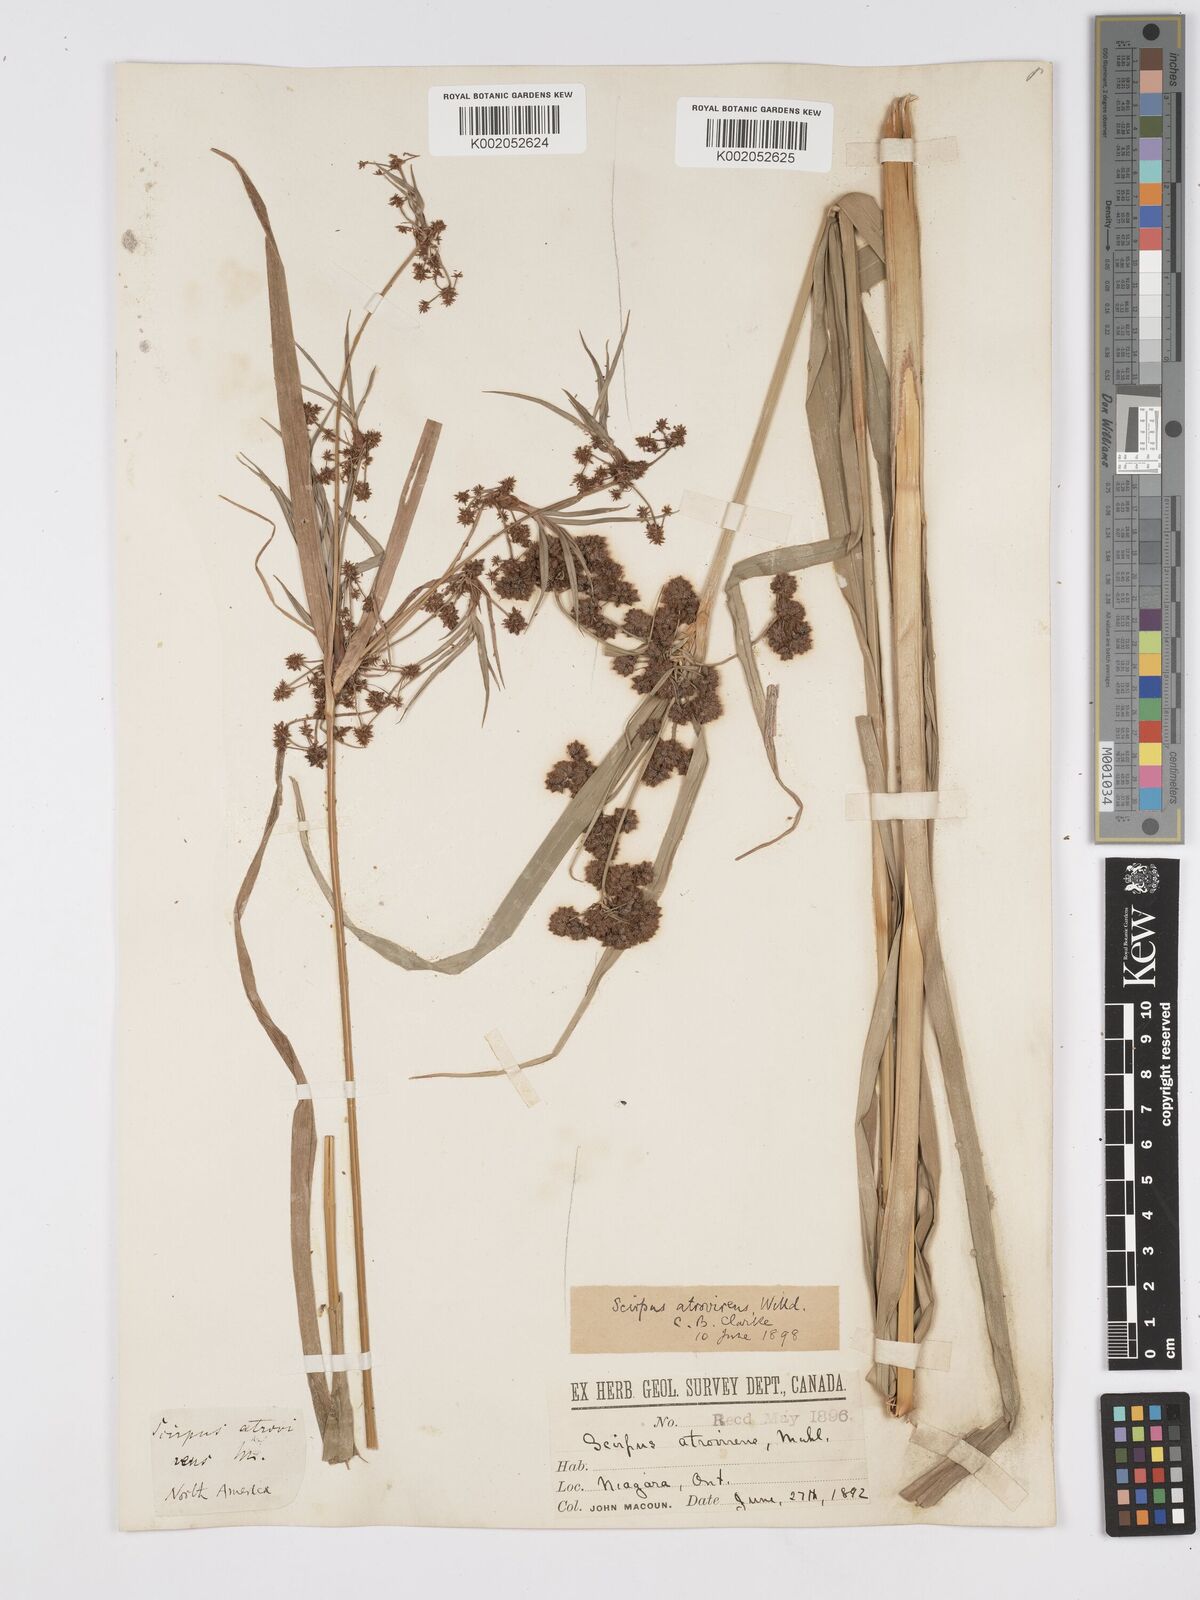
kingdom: Plantae
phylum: Tracheophyta
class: Liliopsida
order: Poales
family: Cyperaceae
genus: Scirpus
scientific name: Scirpus atrovirens
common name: Black bulrush
